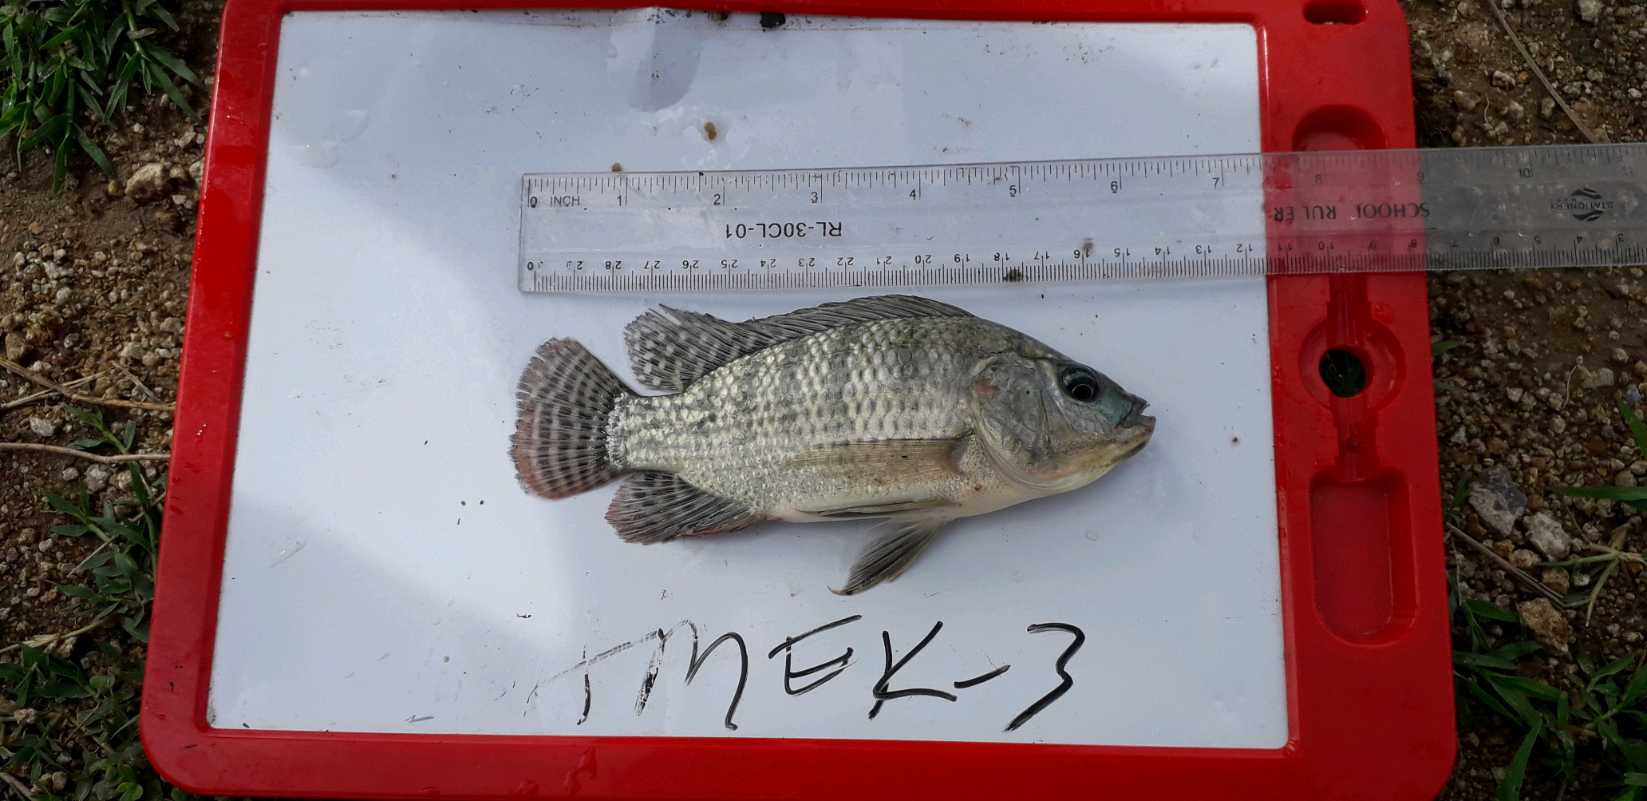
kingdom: Animalia
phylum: Chordata
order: Perciformes
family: Cichlidae
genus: Oreochromis
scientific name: Oreochromis niloticus
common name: Nile tilapia
